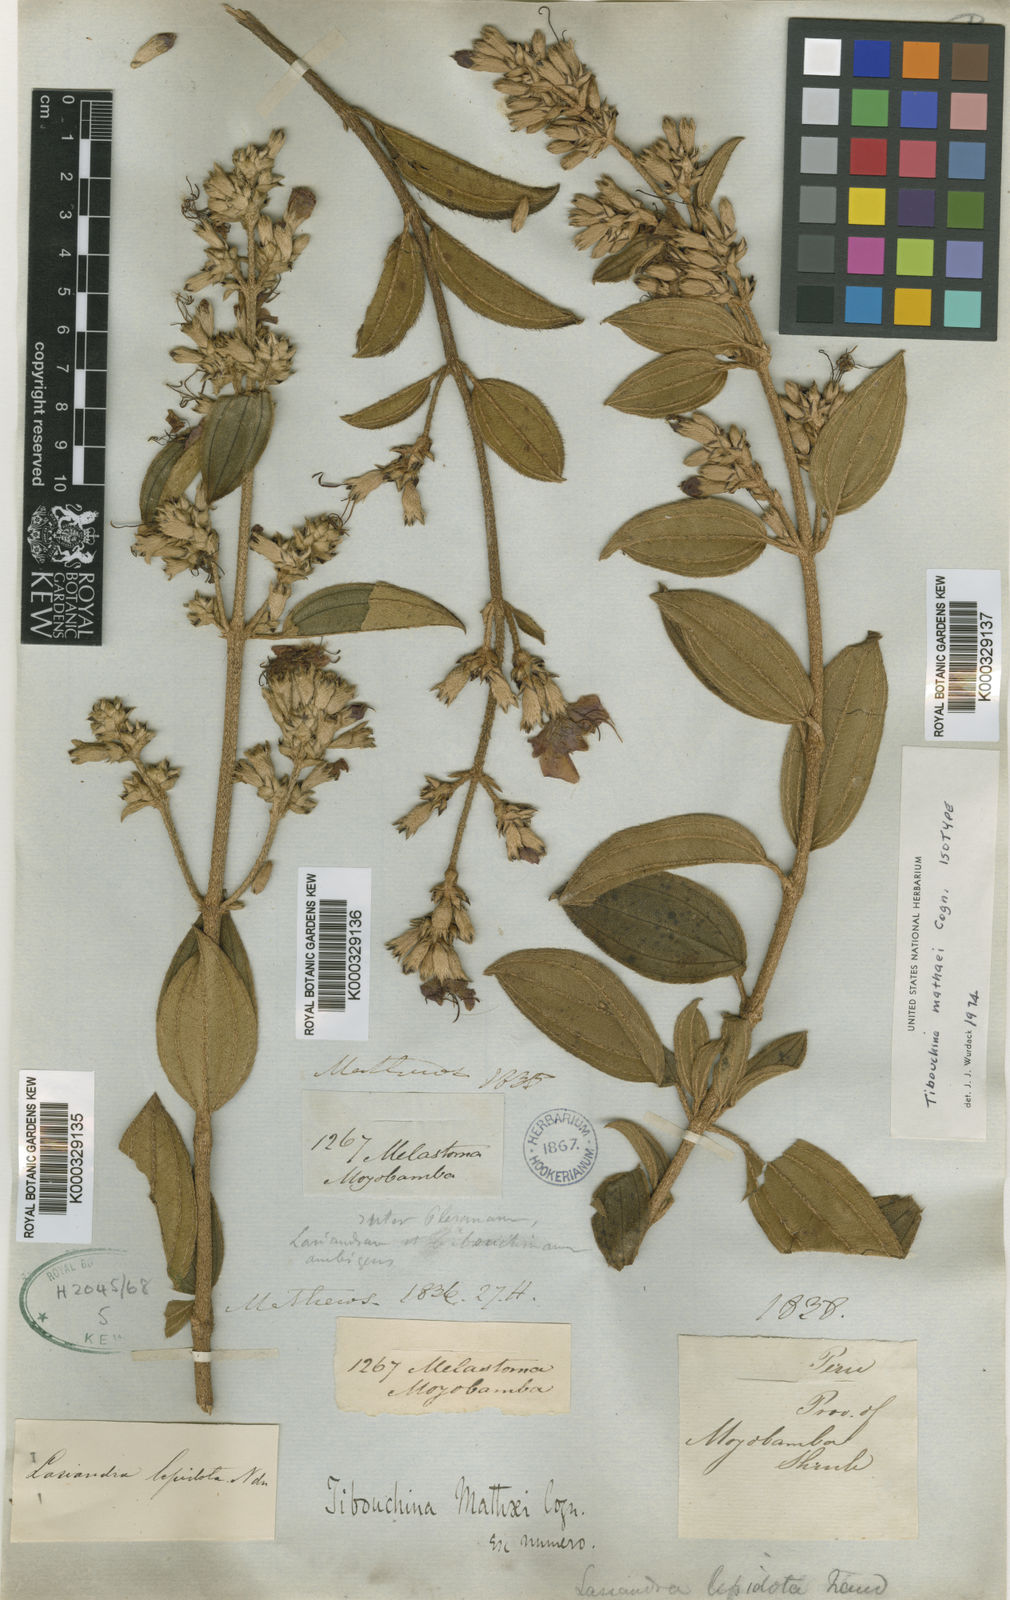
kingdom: Plantae
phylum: Tracheophyta
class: Magnoliopsida
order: Myrtales
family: Melastomataceae
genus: Tibouchina
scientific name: Tibouchina mathaei
